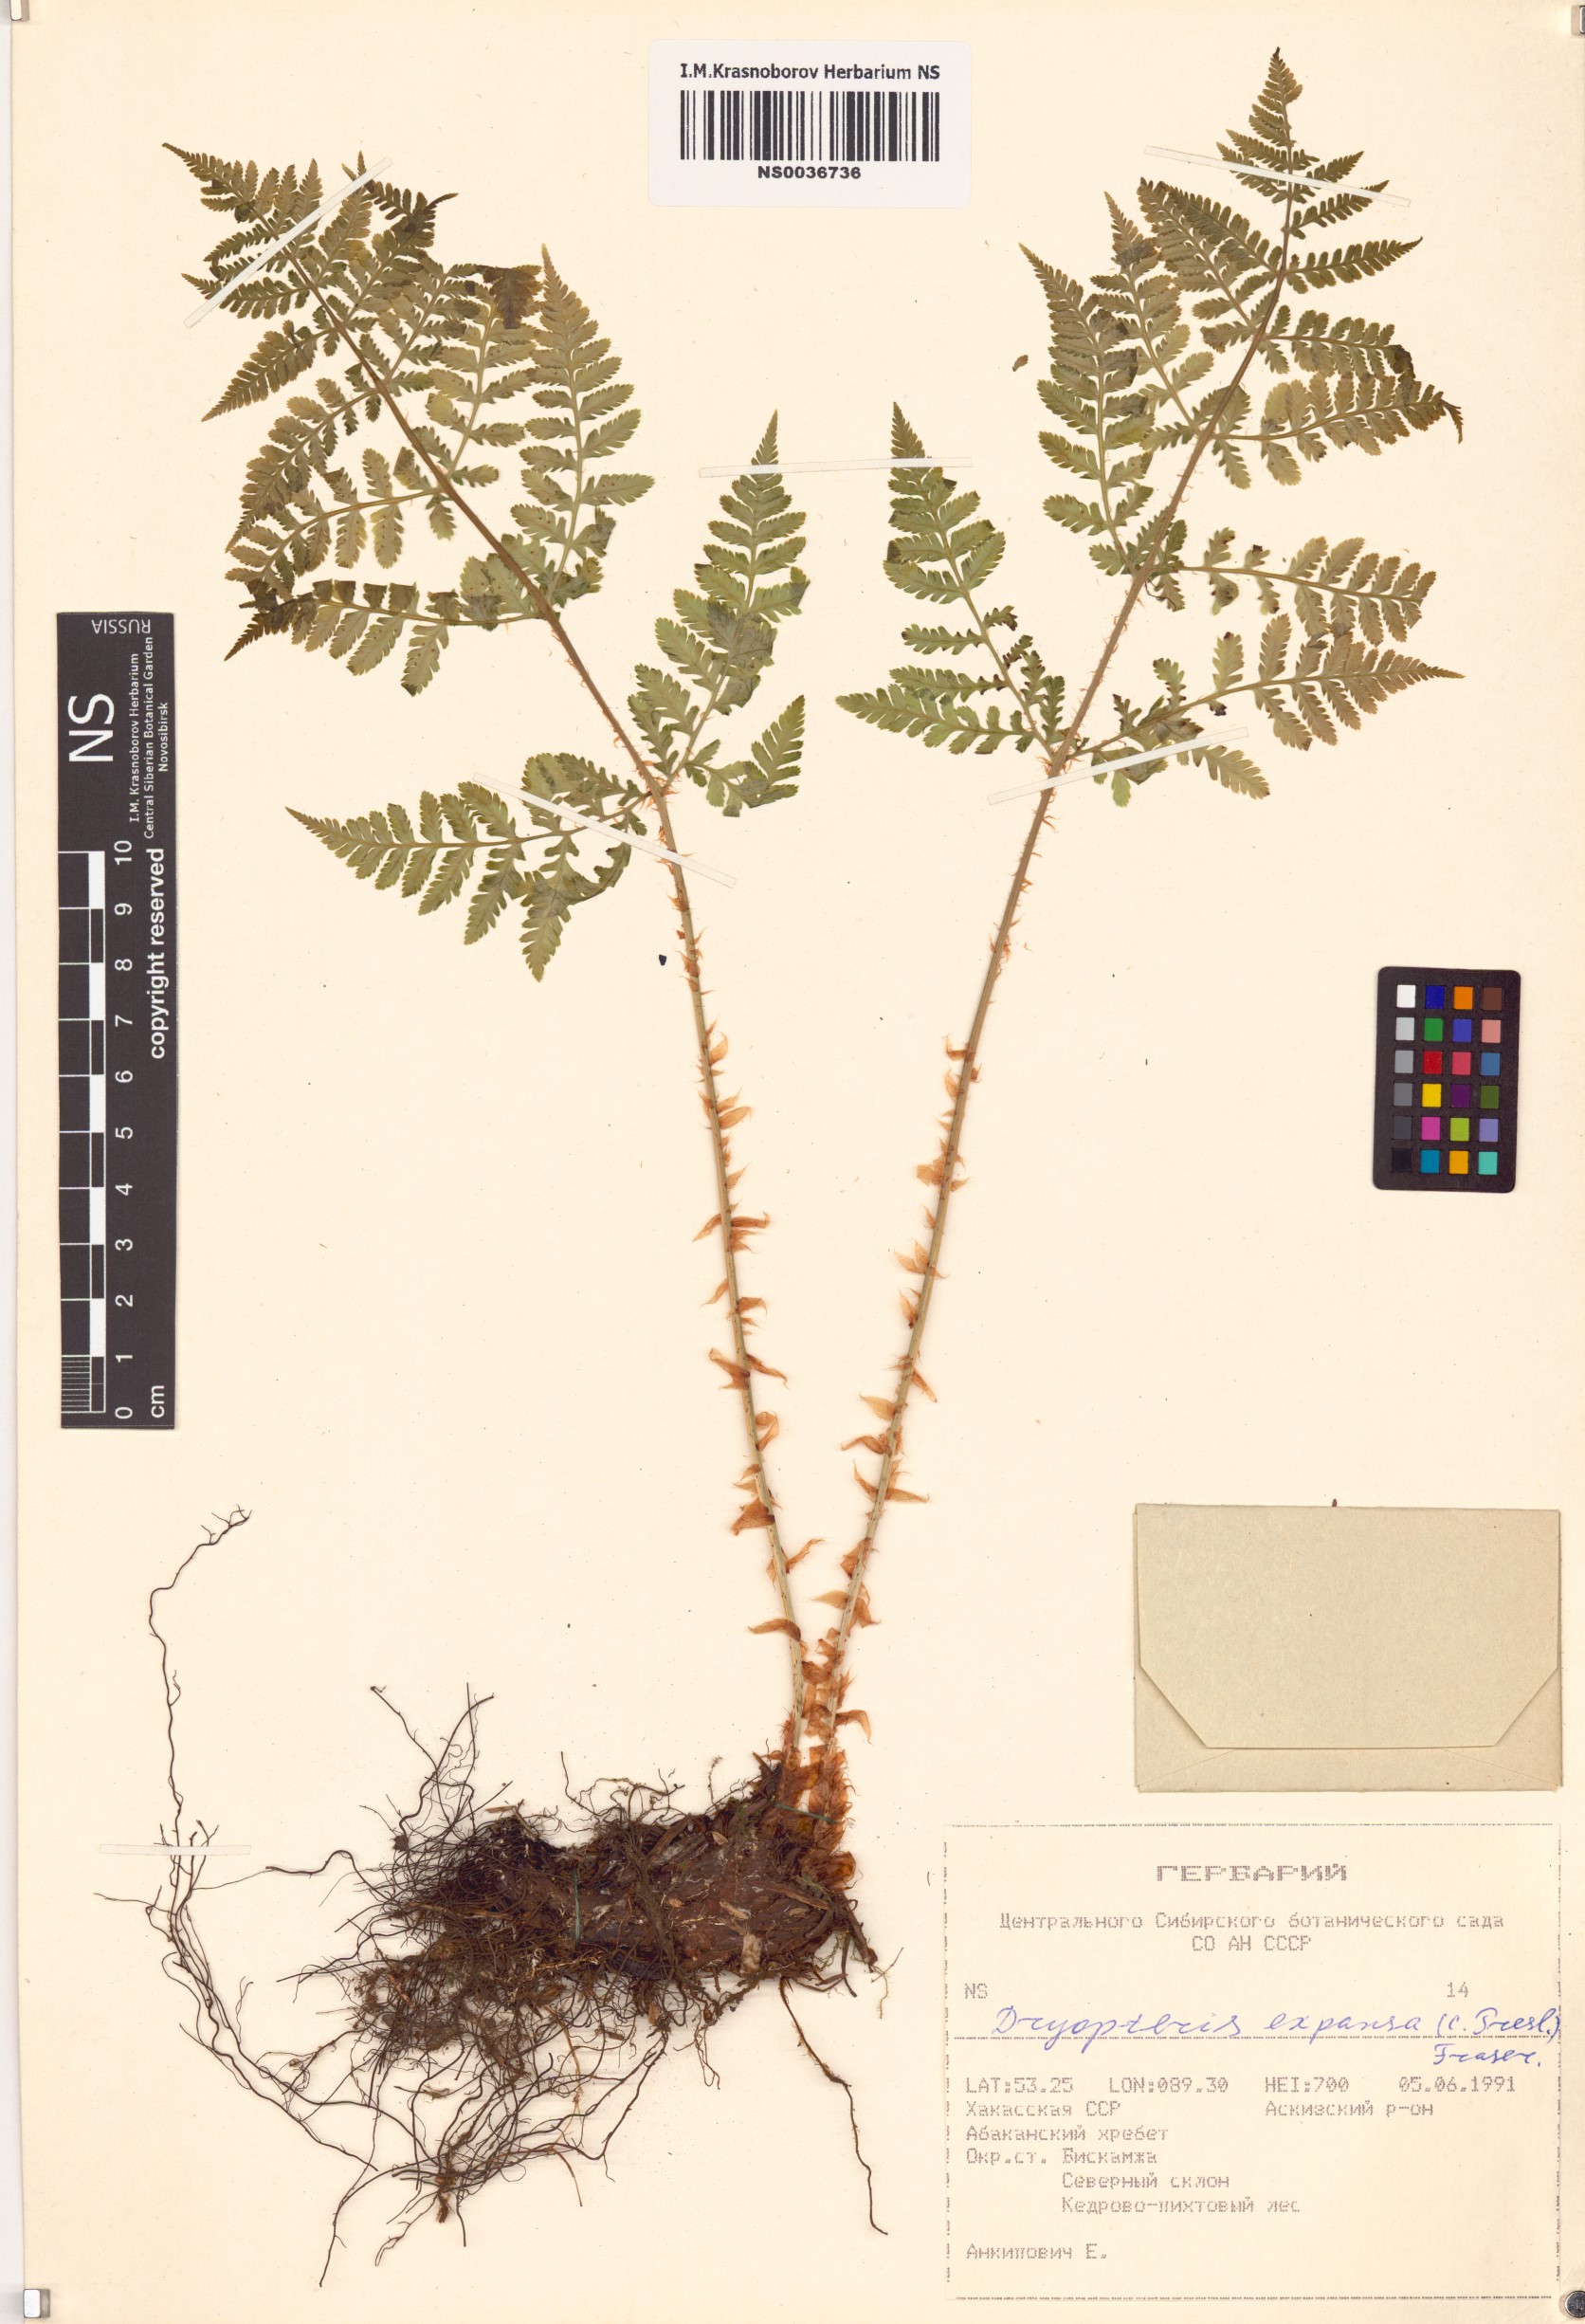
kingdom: Plantae
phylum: Tracheophyta
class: Polypodiopsida
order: Polypodiales
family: Dryopteridaceae
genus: Dryopteris
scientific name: Dryopteris expansa
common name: Northern buckler fern
